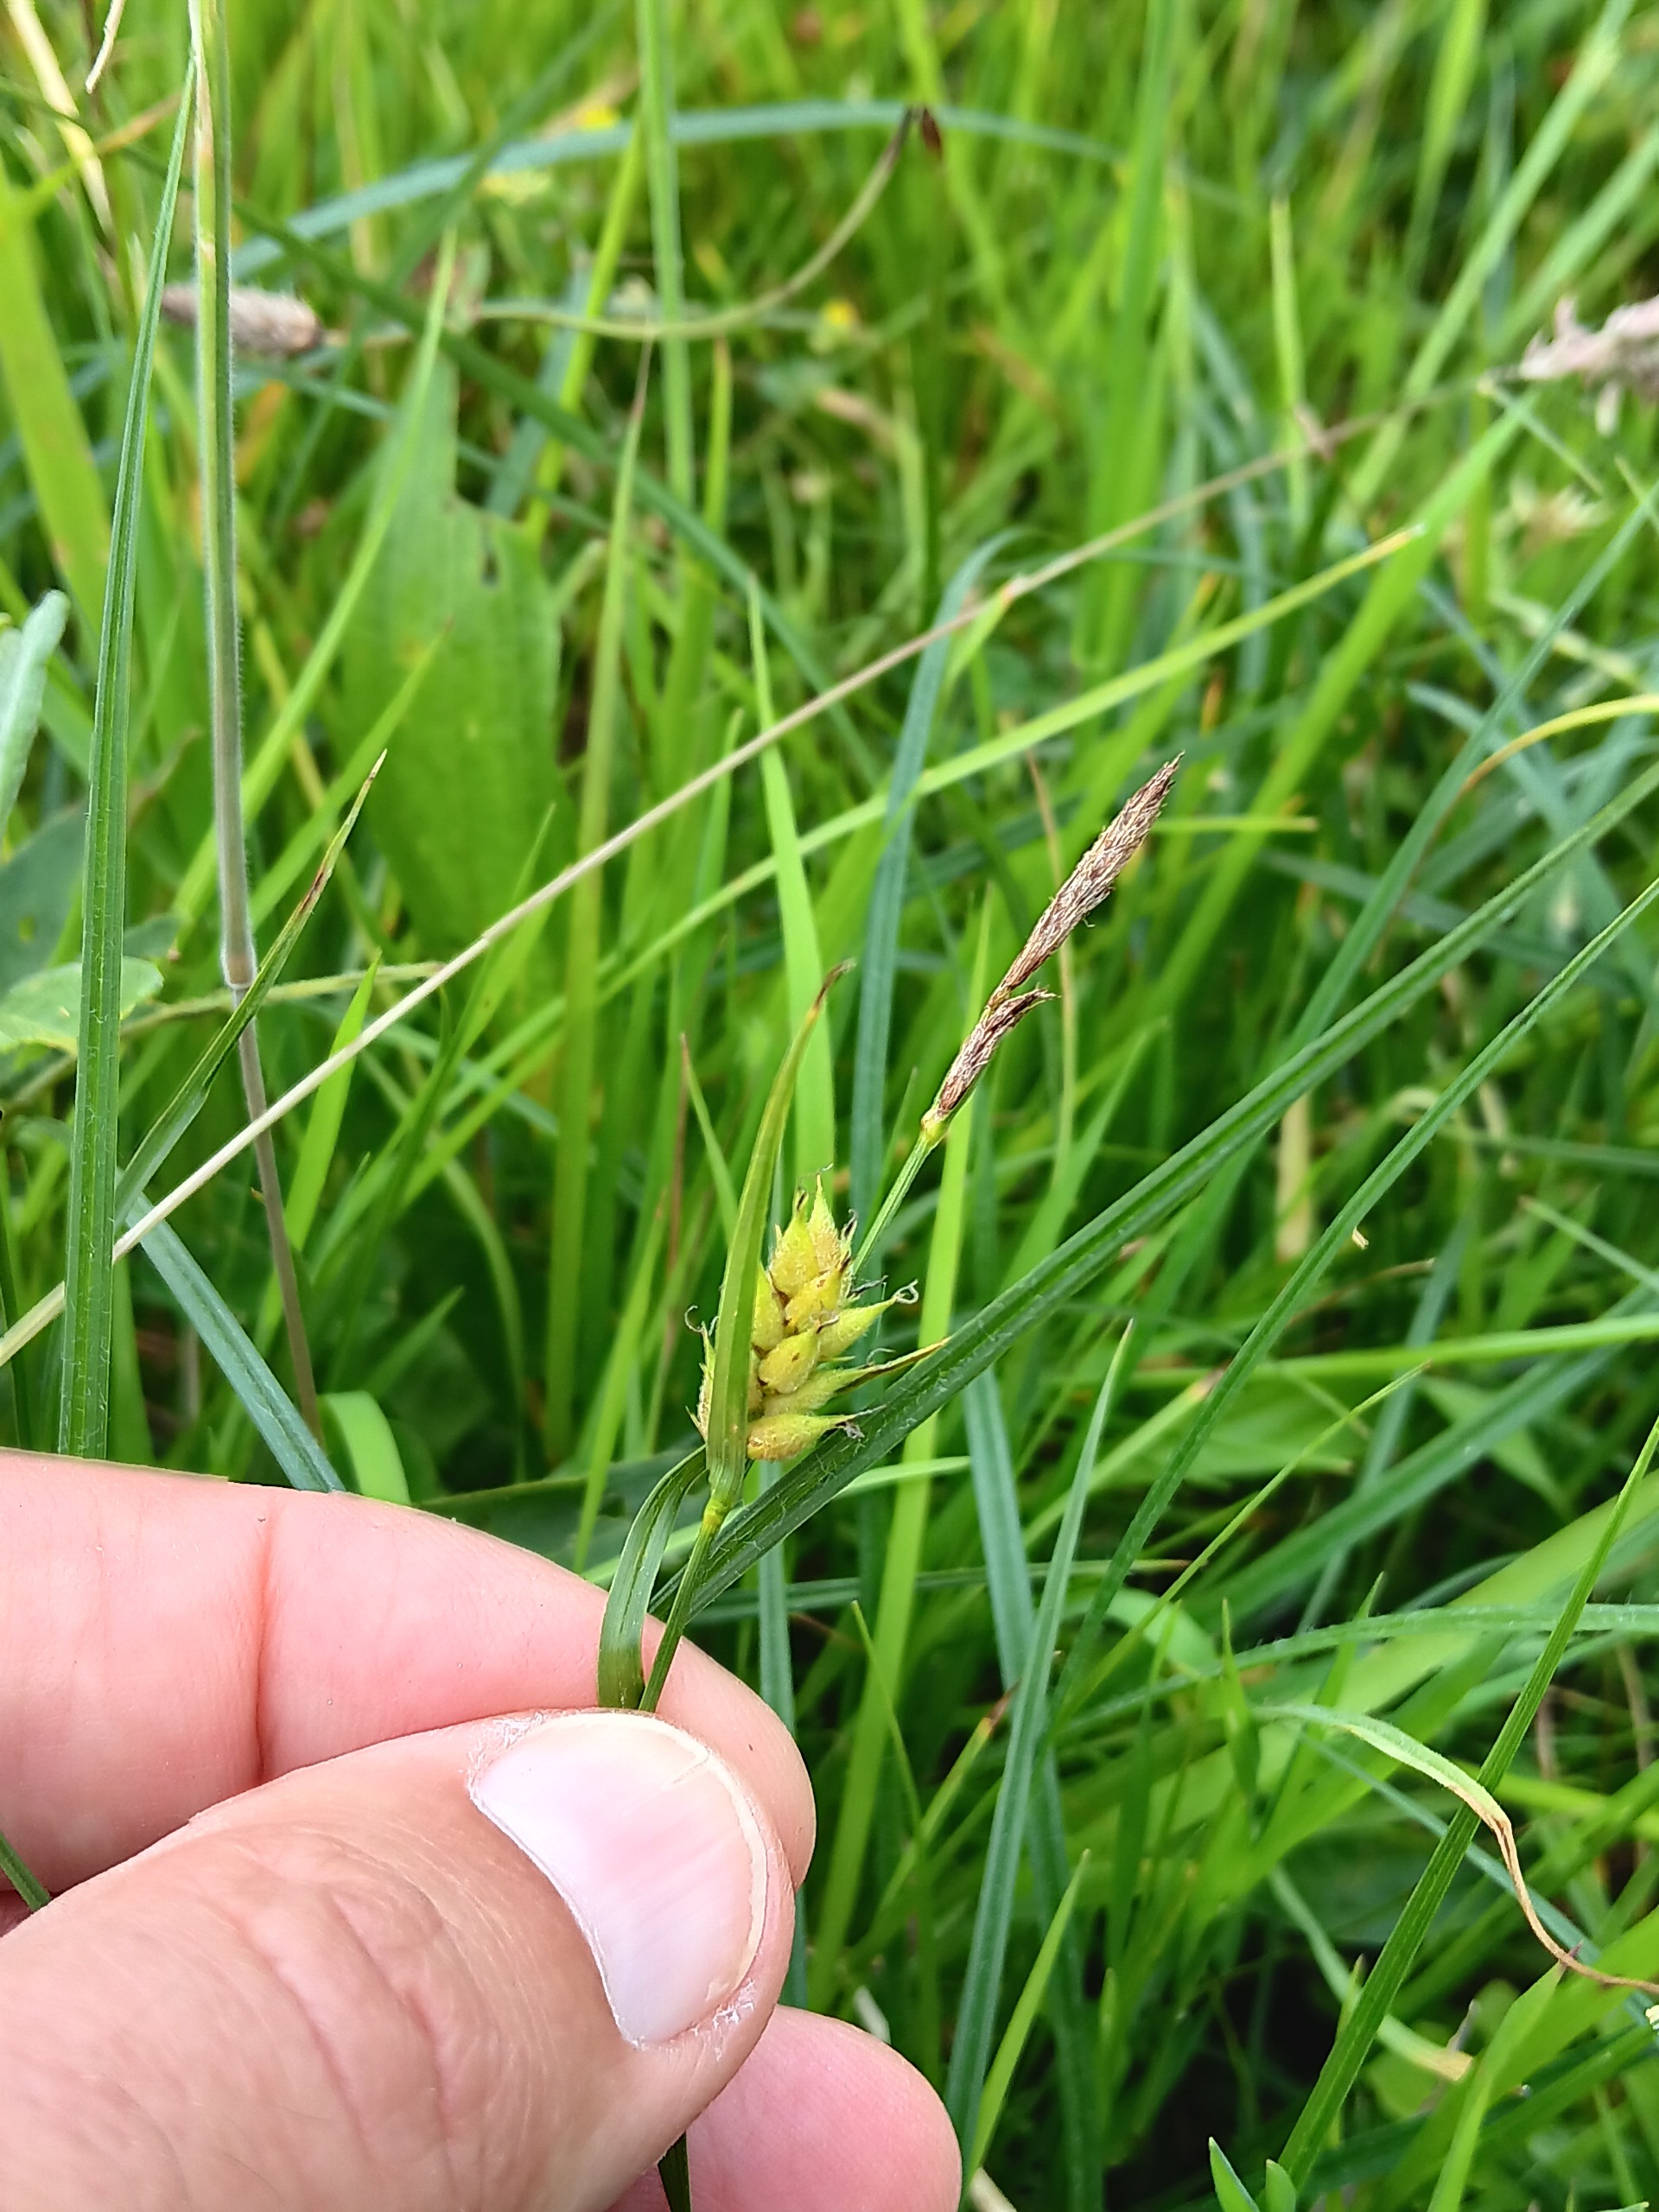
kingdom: Plantae
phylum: Tracheophyta
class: Liliopsida
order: Poales
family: Cyperaceae
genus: Carex
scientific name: Carex hirta
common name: Håret star
